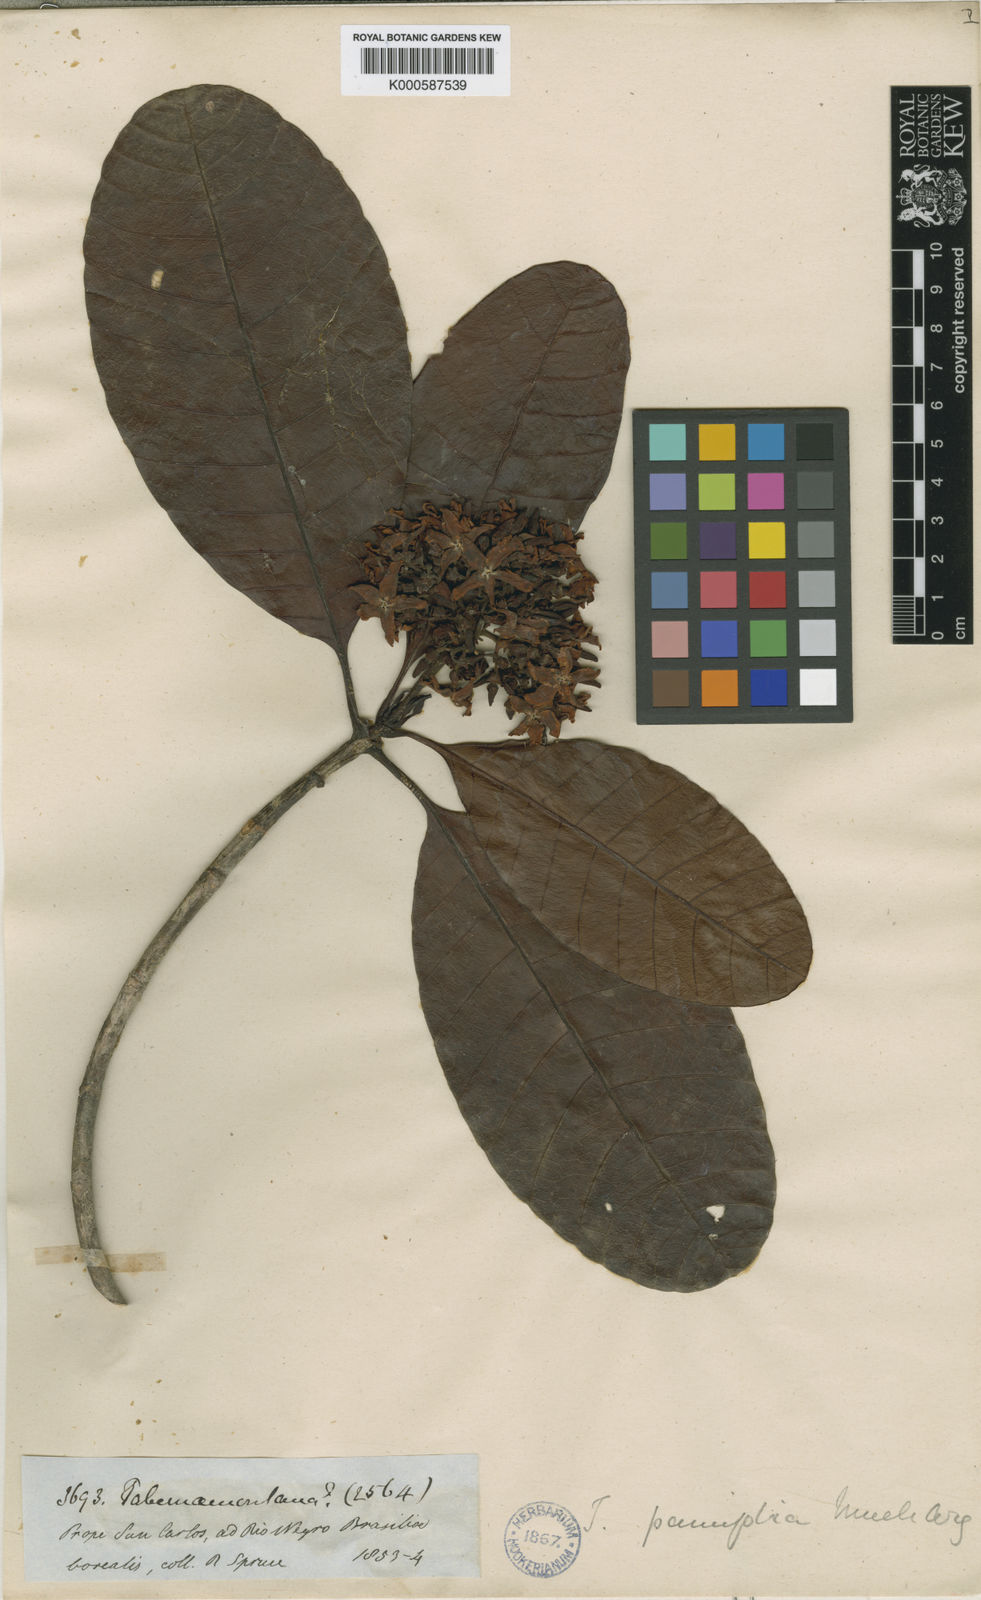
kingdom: Plantae
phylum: Tracheophyta
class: Magnoliopsida
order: Gentianales
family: Apocynaceae
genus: Macoubea
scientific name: Macoubea guianensis
